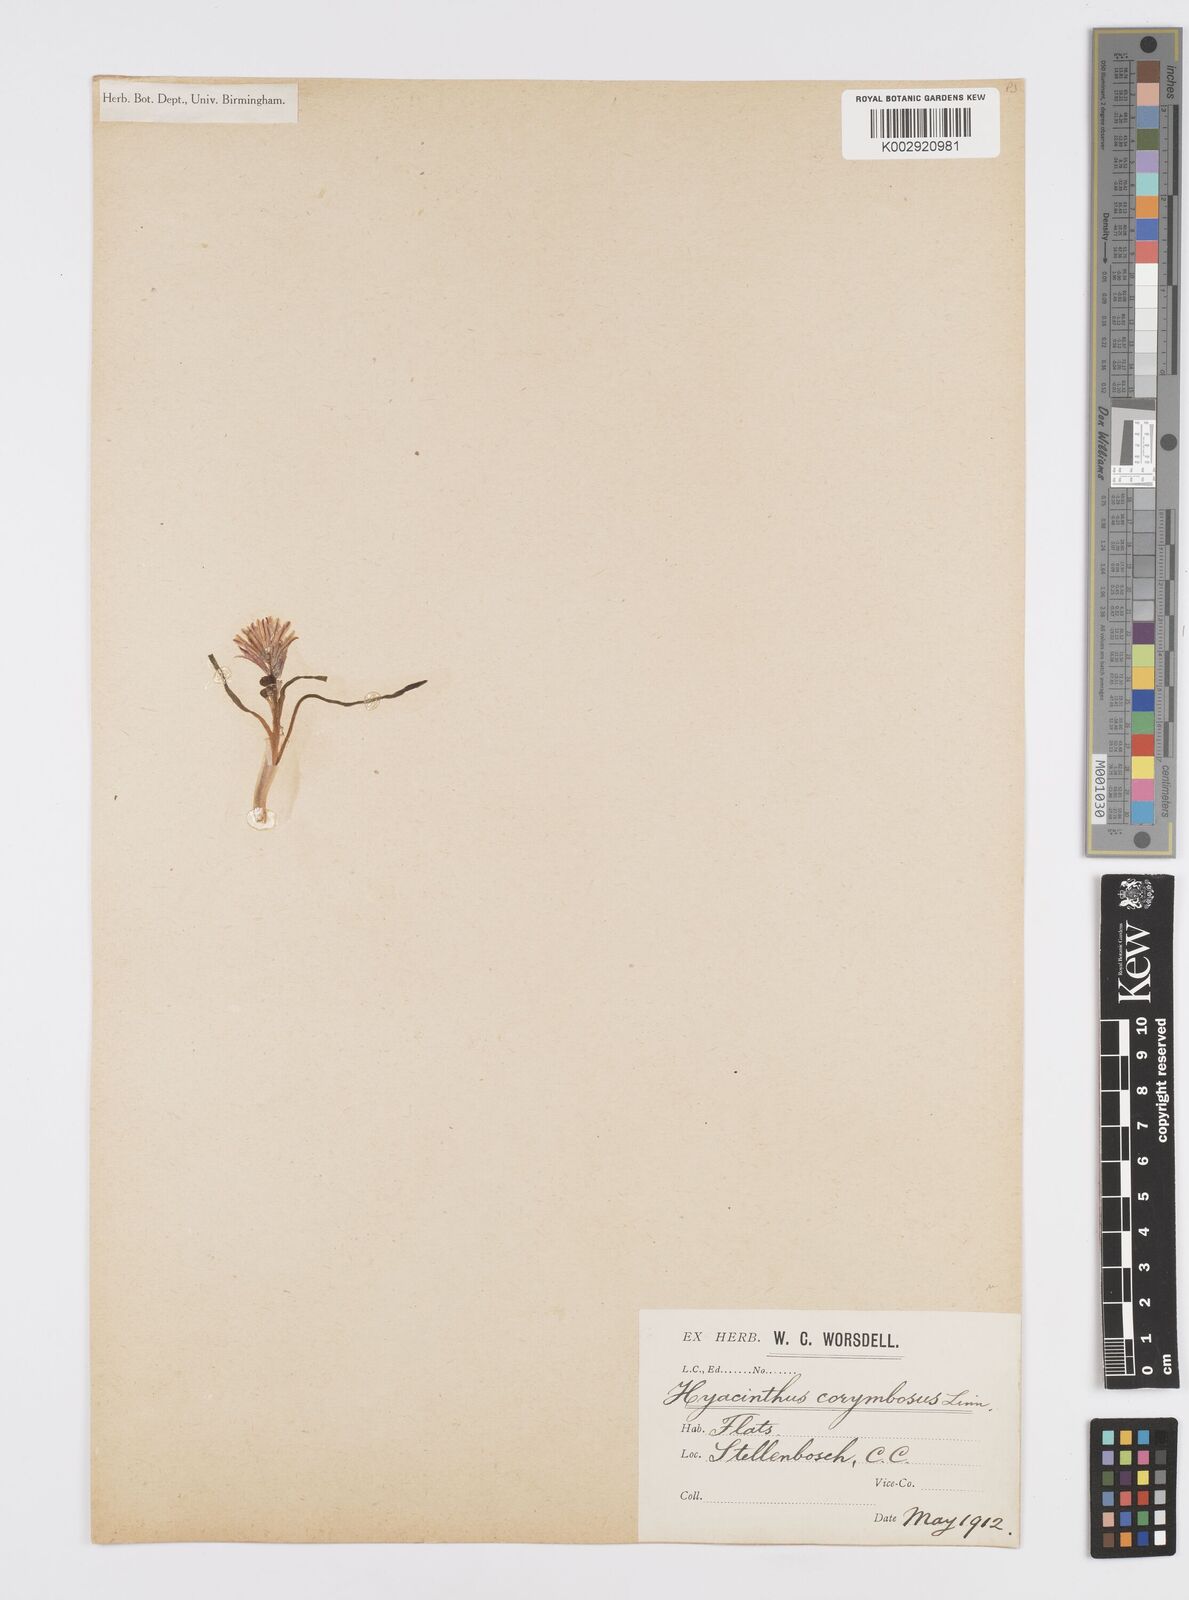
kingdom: Plantae
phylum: Tracheophyta
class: Liliopsida
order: Asparagales
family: Asparagaceae
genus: Lachenalia
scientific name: Lachenalia corymbosa
